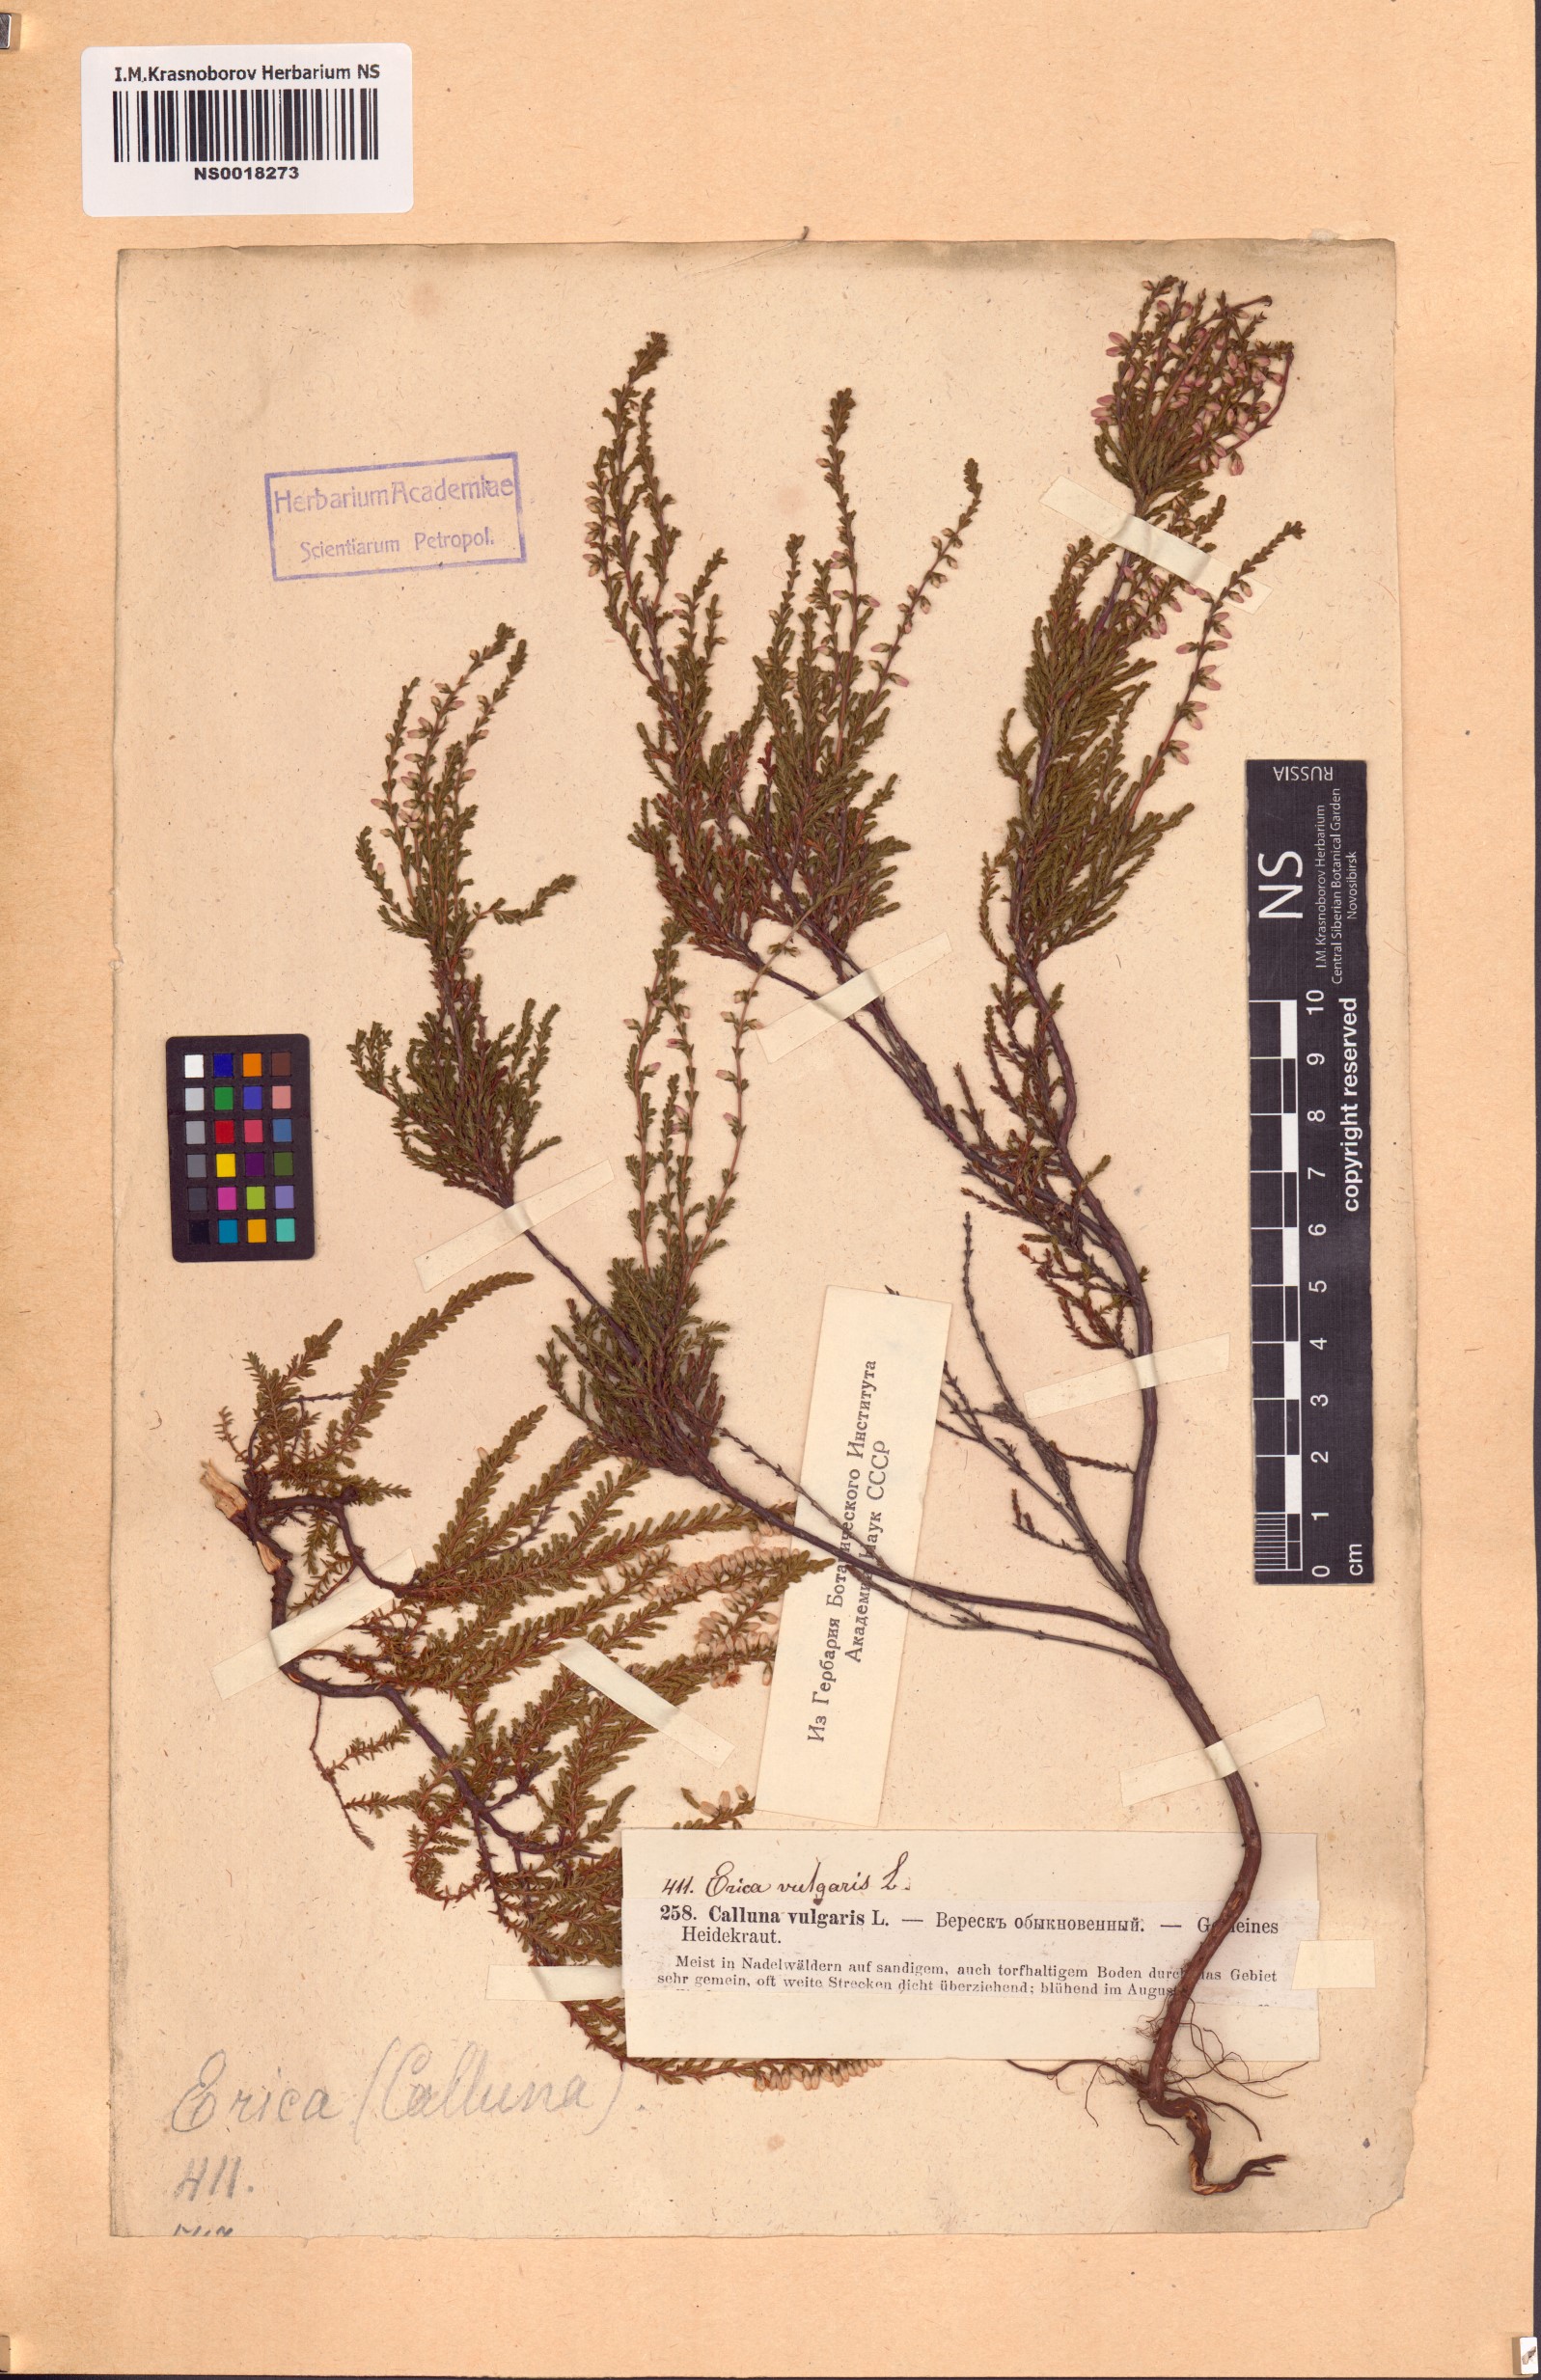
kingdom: Plantae
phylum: Tracheophyta
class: Magnoliopsida
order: Ericales
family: Ericaceae
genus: Calluna
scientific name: Calluna vulgaris
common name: Heather
